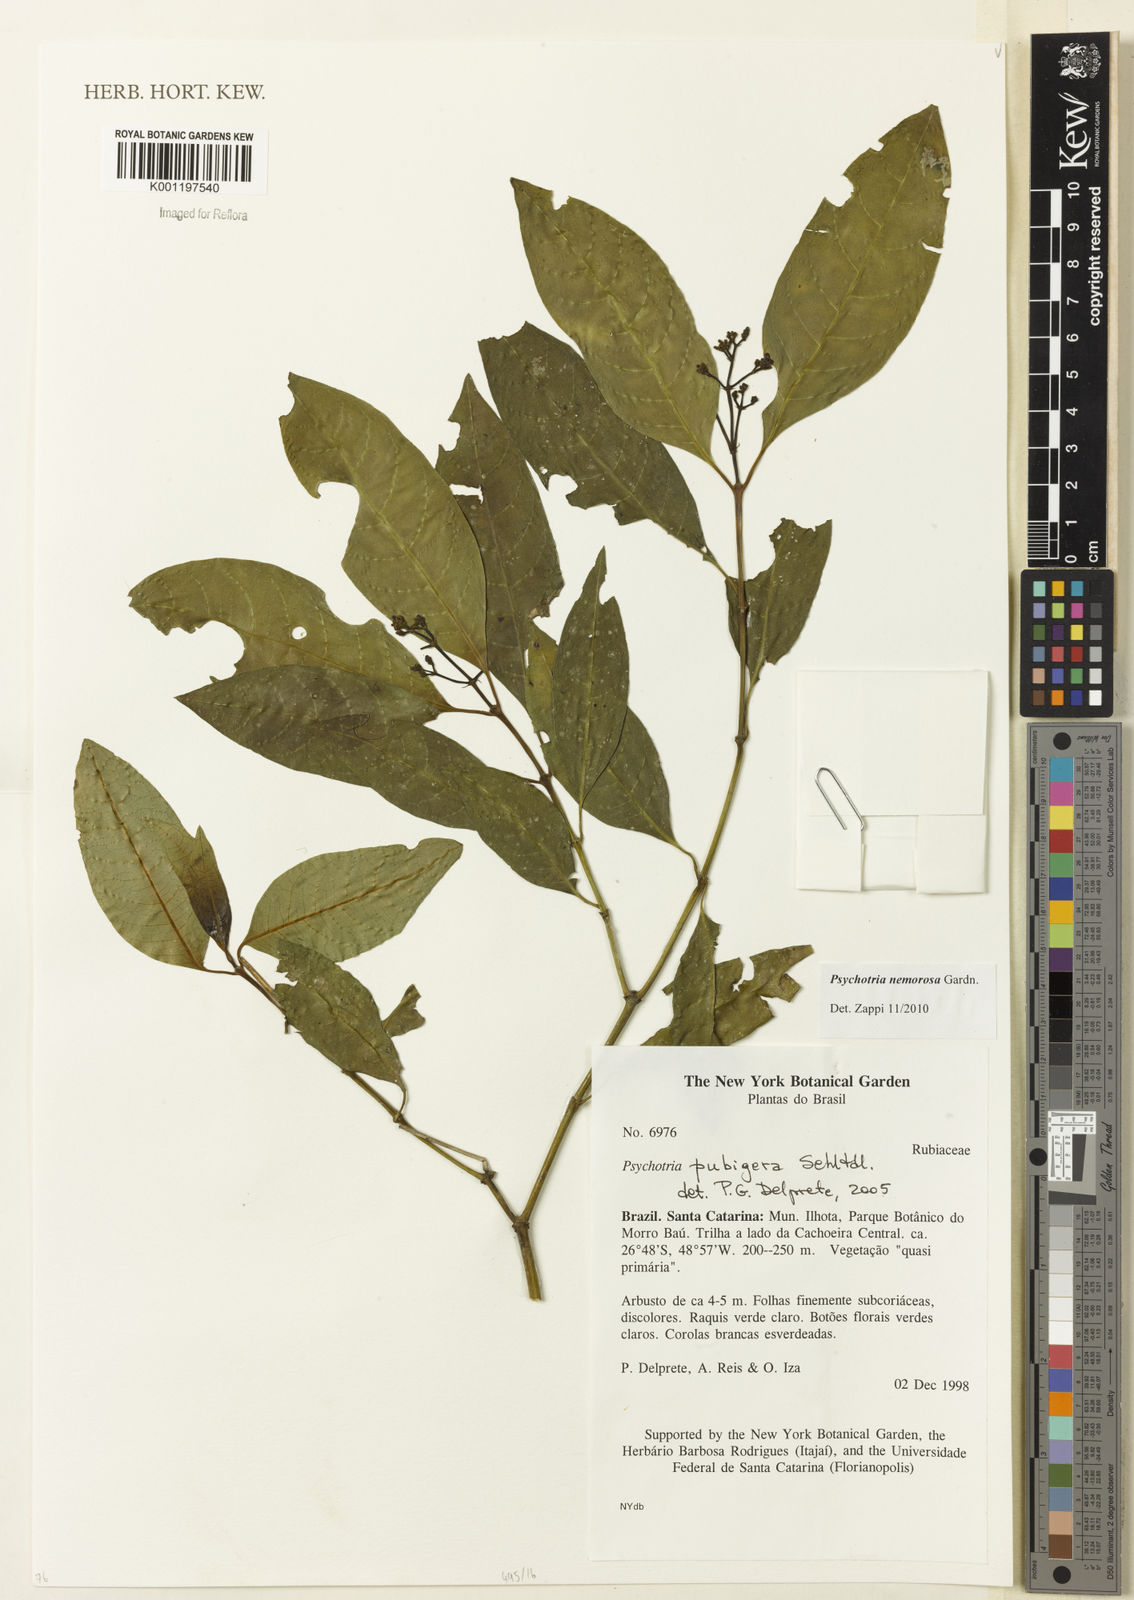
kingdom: Plantae
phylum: Tracheophyta
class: Magnoliopsida
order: Gentianales
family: Rubiaceae
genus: Psychotria
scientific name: Psychotria nemorosa
